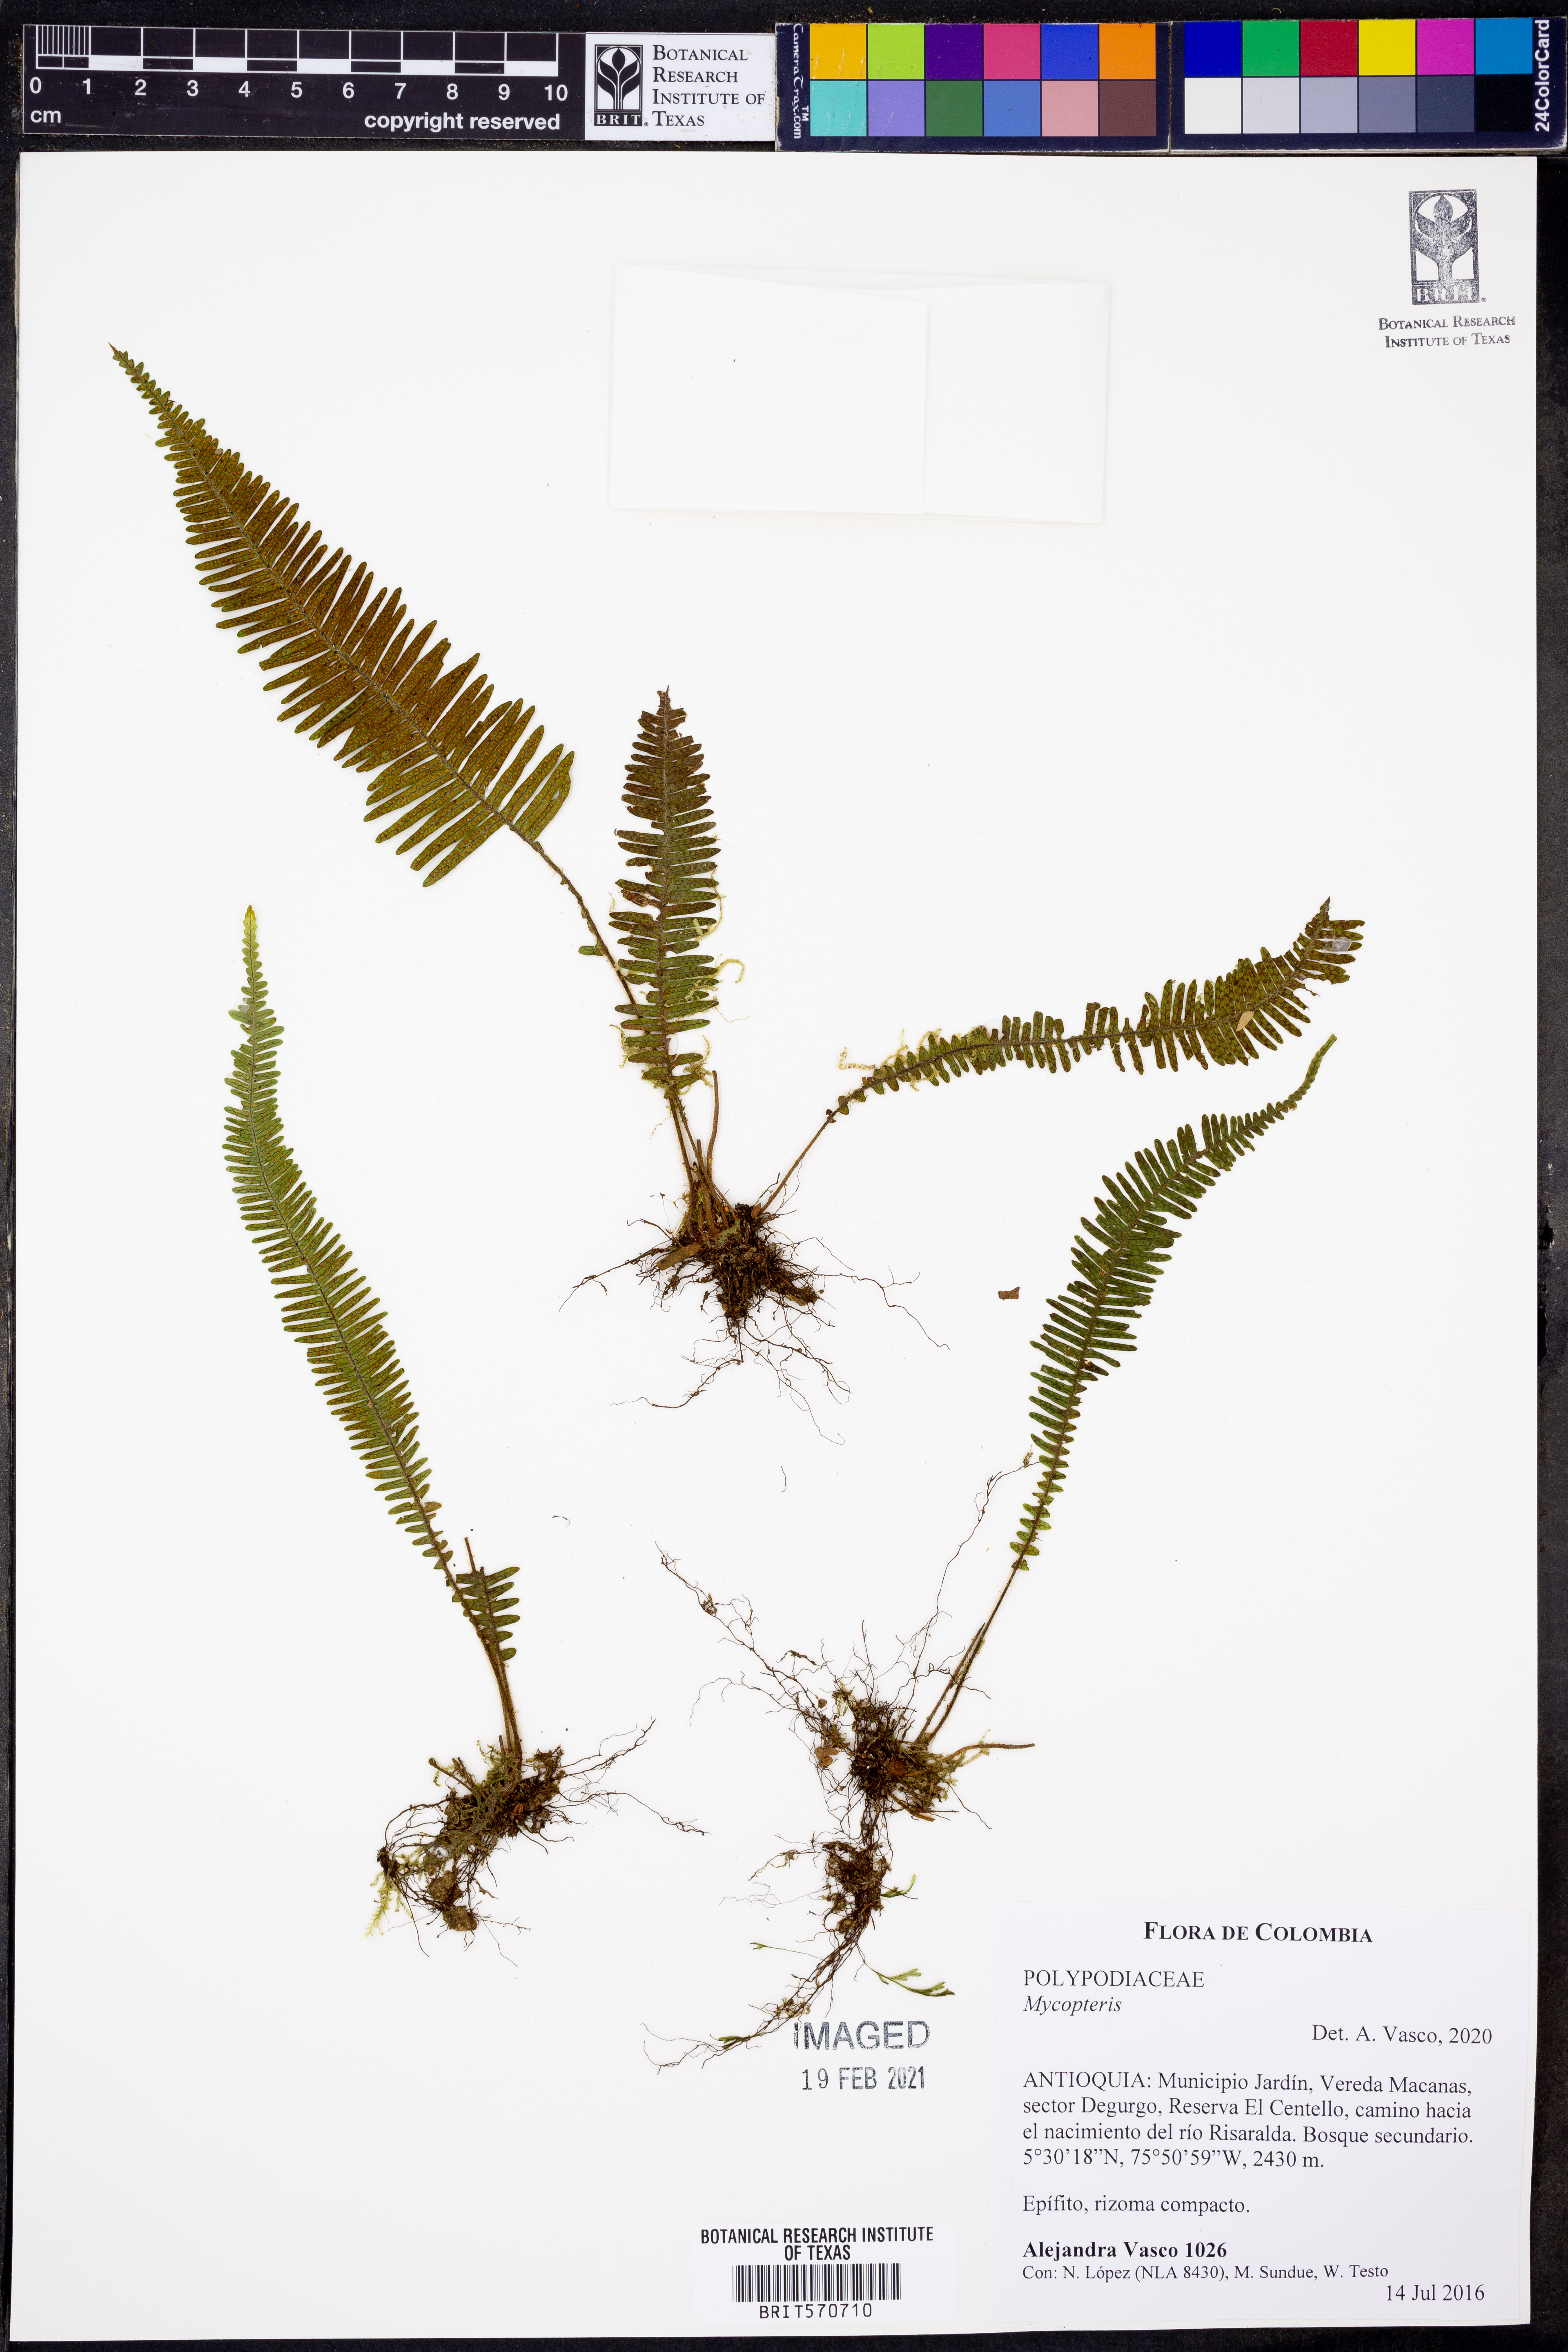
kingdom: Plantae
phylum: Tracheophyta
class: Polypodiopsida
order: Polypodiales
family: Polypodiaceae
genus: Mycopteris
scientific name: Mycopteris
